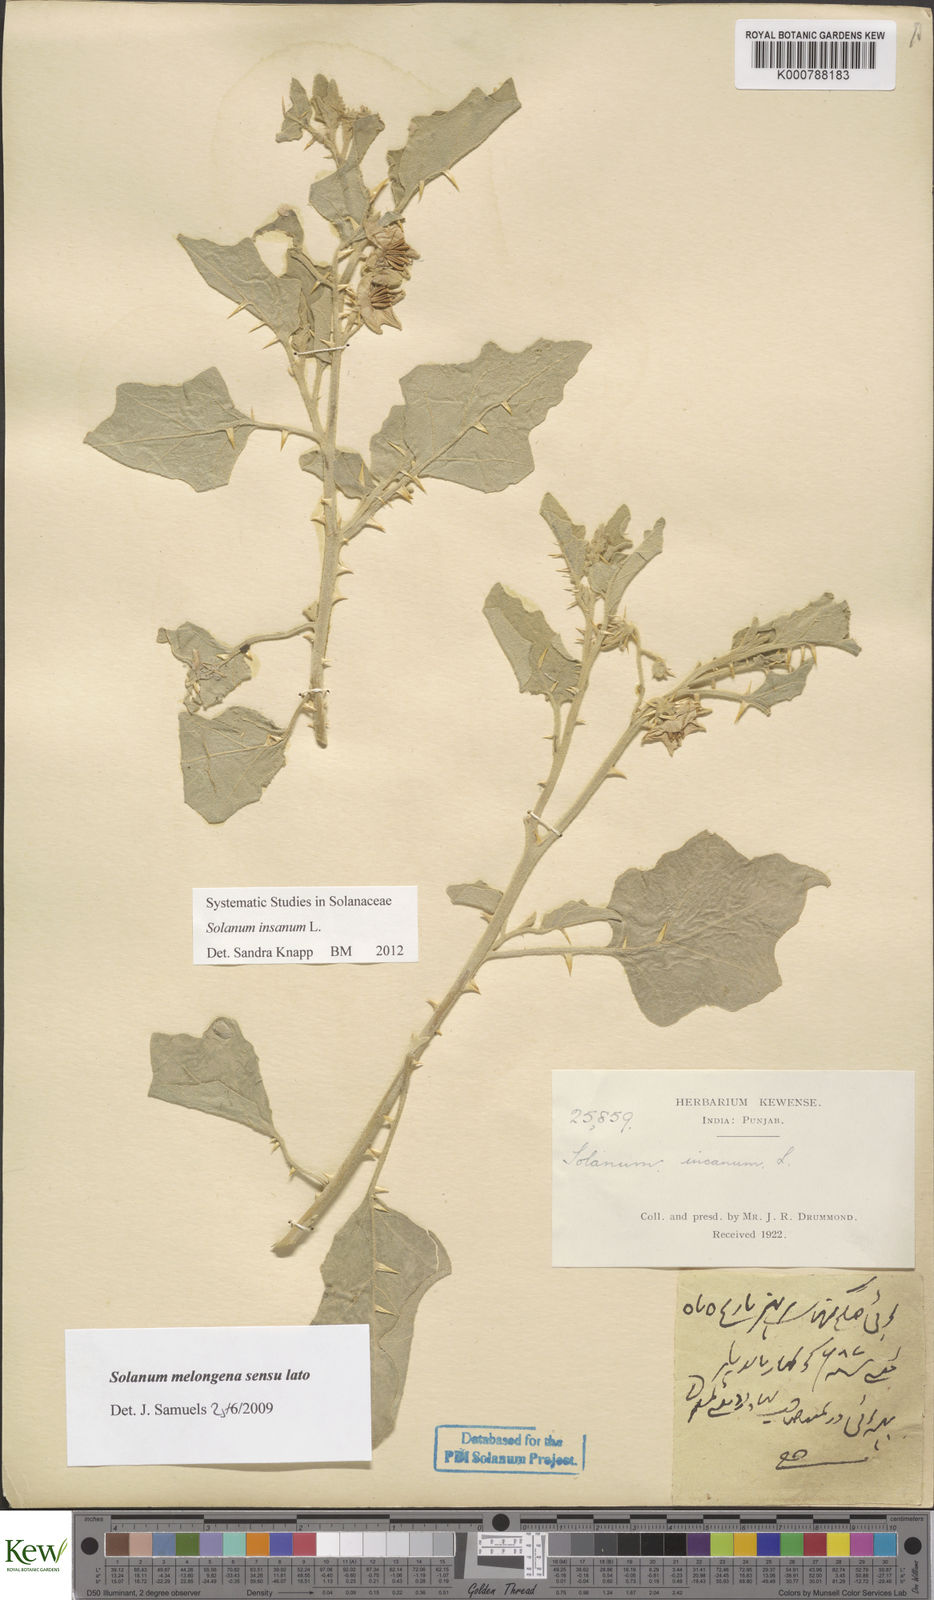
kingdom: Plantae
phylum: Tracheophyta
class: Magnoliopsida
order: Solanales
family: Solanaceae
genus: Solanum
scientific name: Solanum insanum
